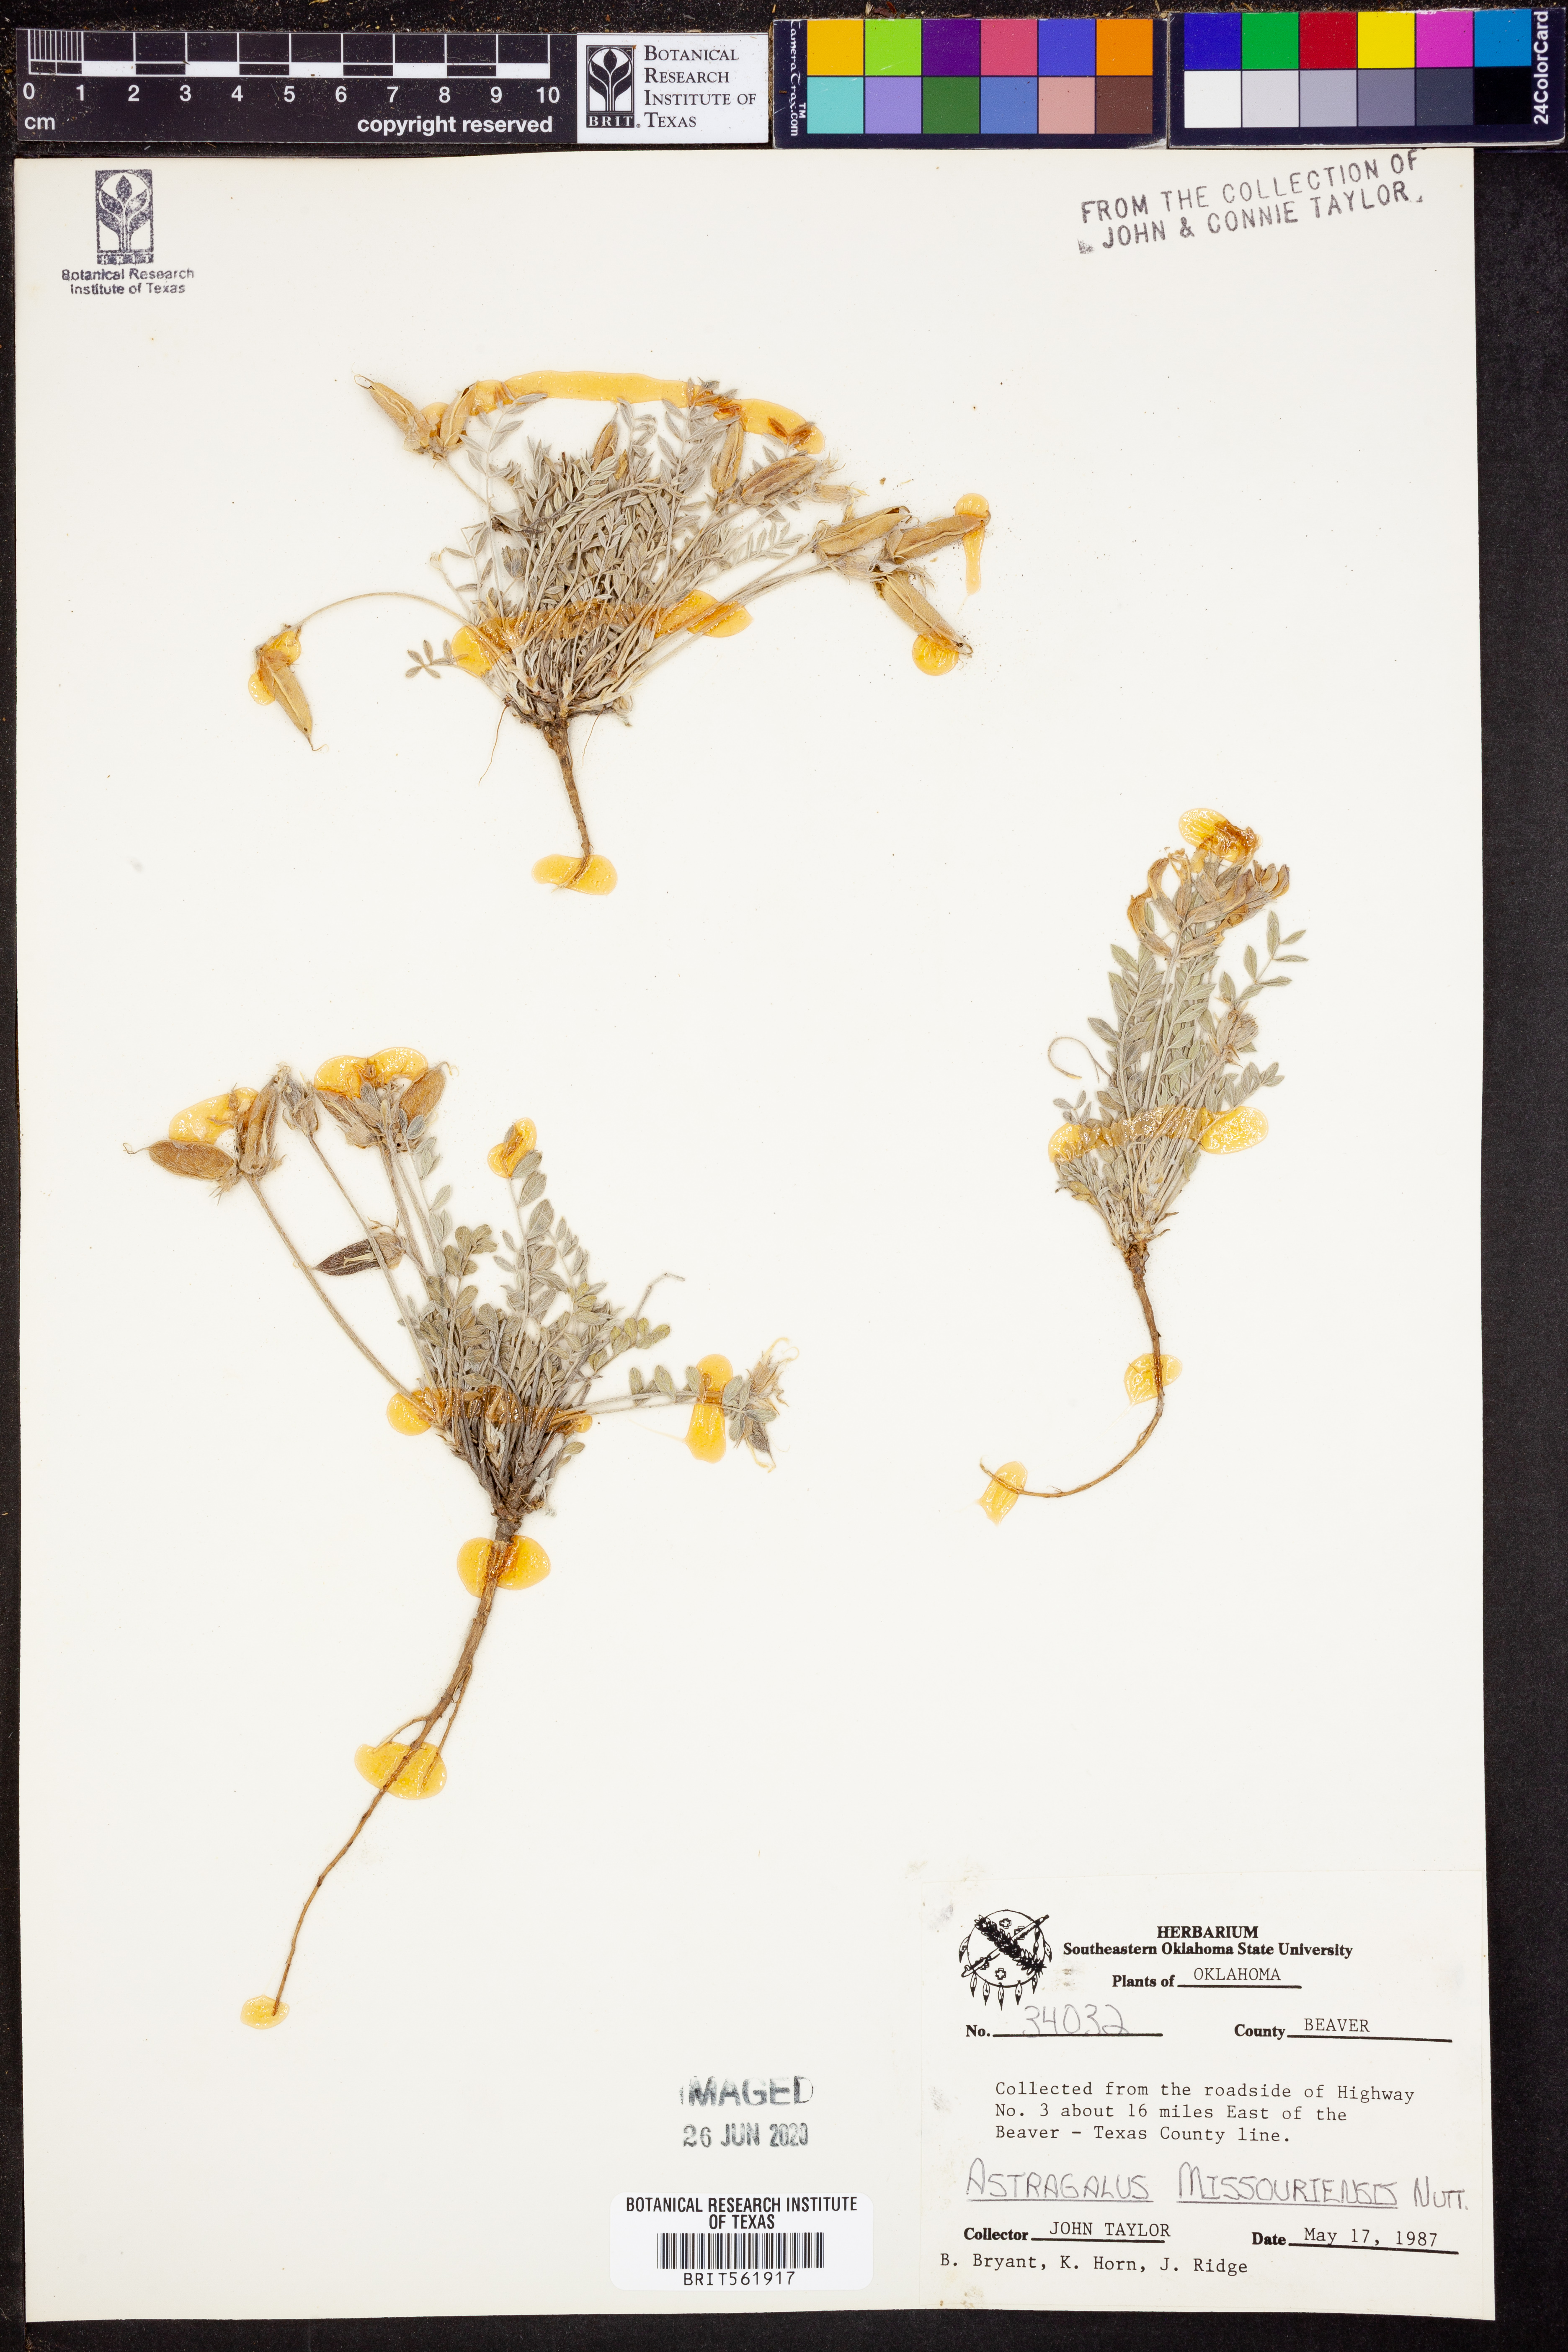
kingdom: Plantae
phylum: Tracheophyta
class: Magnoliopsida
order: Fabales
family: Fabaceae
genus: Astragalus
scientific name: Astragalus missouriensis
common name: Missouri milk-vetch
